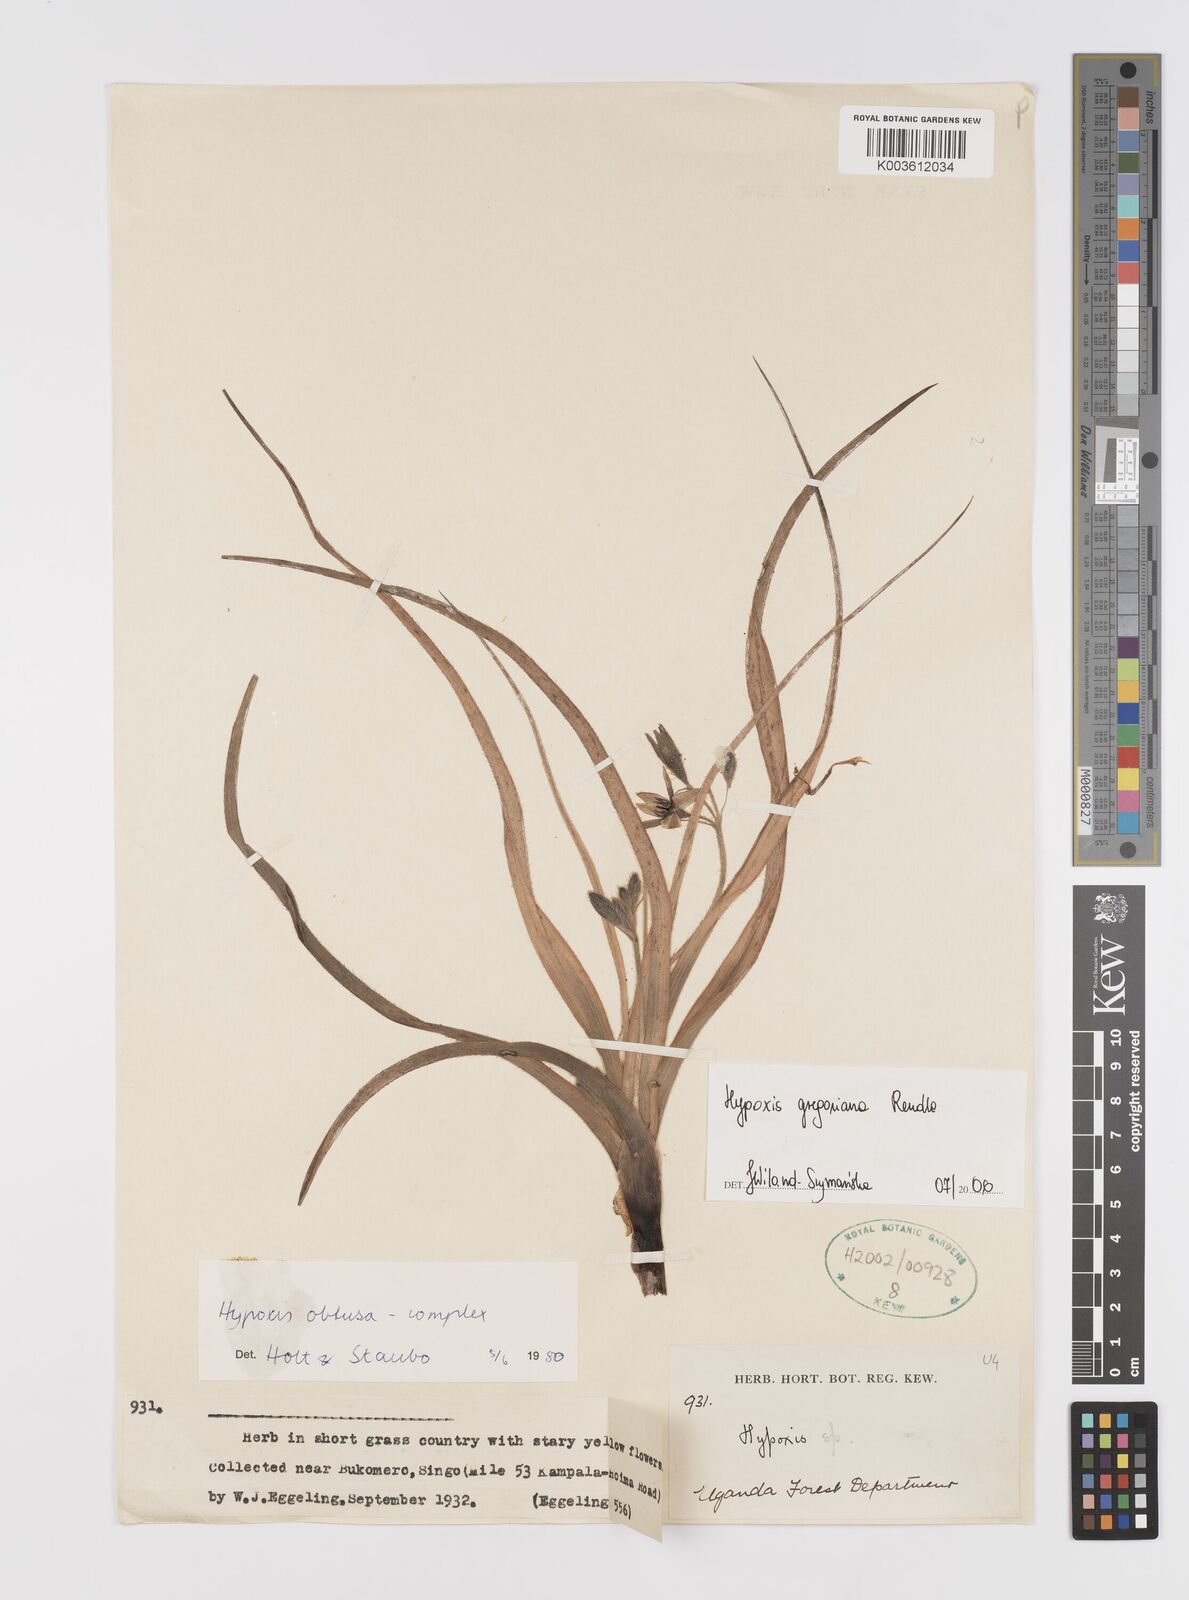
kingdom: Plantae
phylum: Tracheophyta
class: Liliopsida
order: Asparagales
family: Hypoxidaceae
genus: Hypoxis
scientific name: Hypoxis gregoriana
